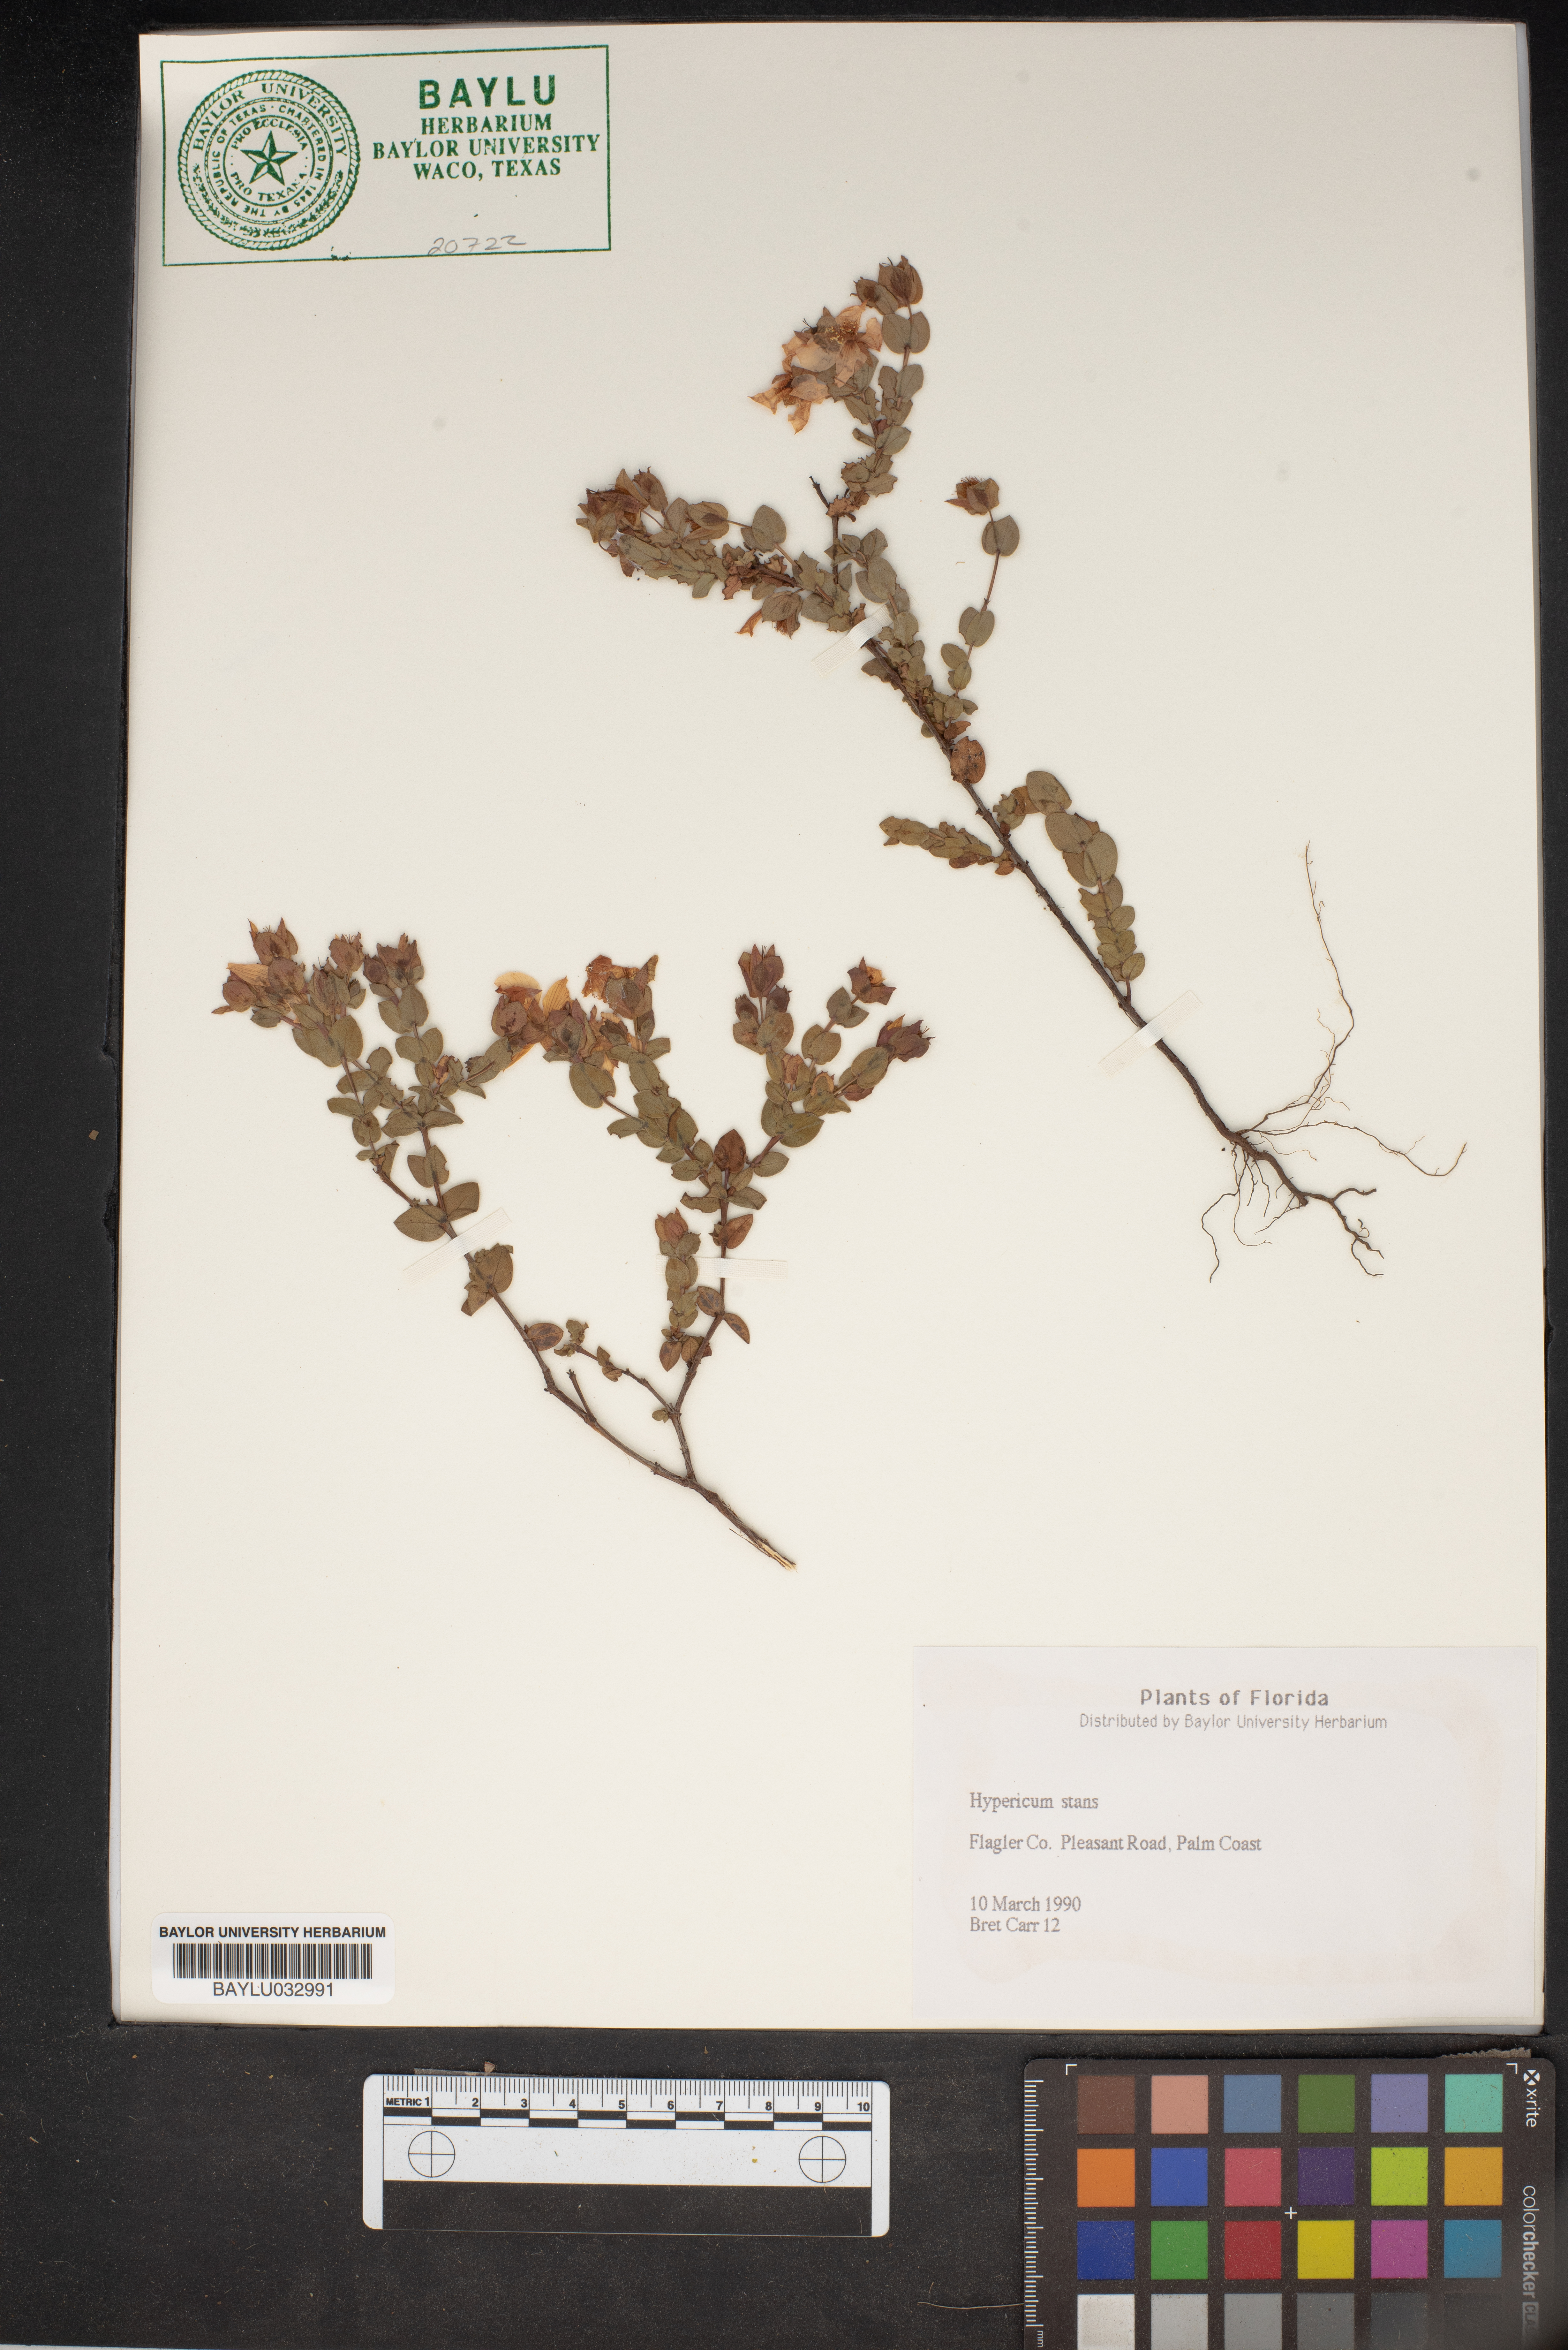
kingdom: Plantae
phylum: Tracheophyta
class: Magnoliopsida
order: Malpighiales
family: Hypericaceae
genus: Hypericum
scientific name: Hypericum crux-andreae
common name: St.-peter's-wort
